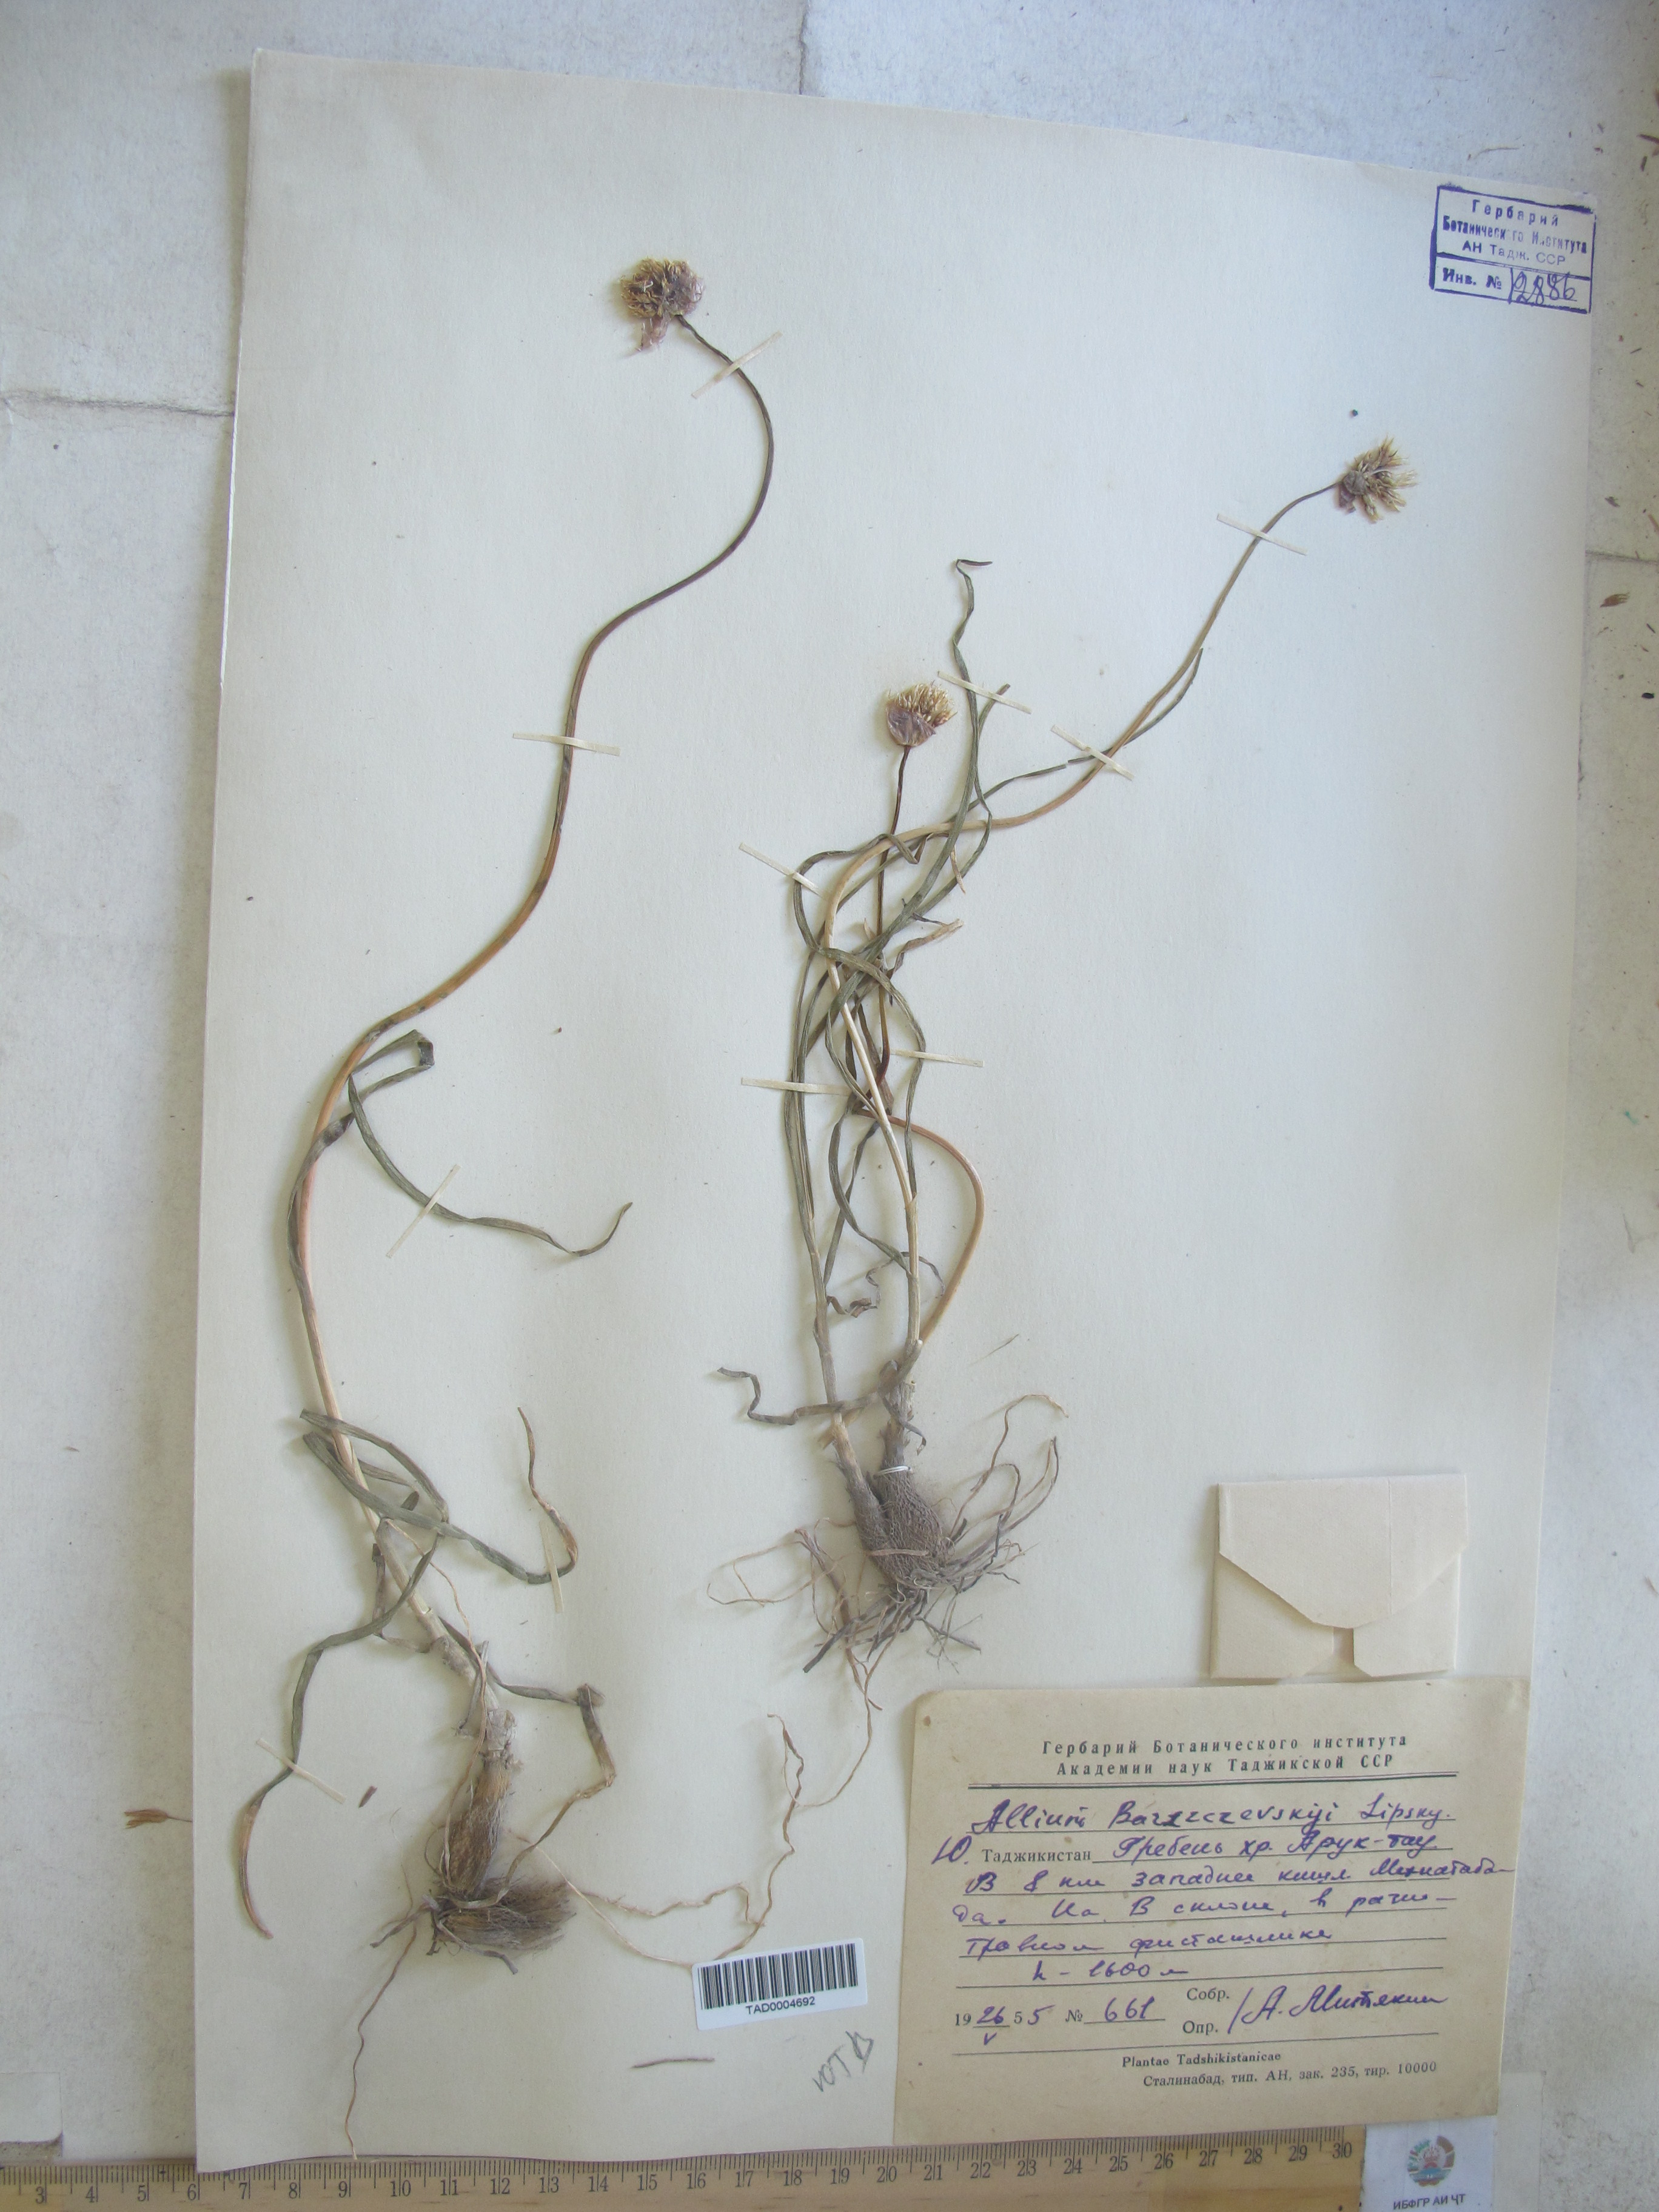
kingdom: Plantae
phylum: Tracheophyta
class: Liliopsida
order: Asparagales
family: Amaryllidaceae
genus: Allium
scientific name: Allium barsczewskii
